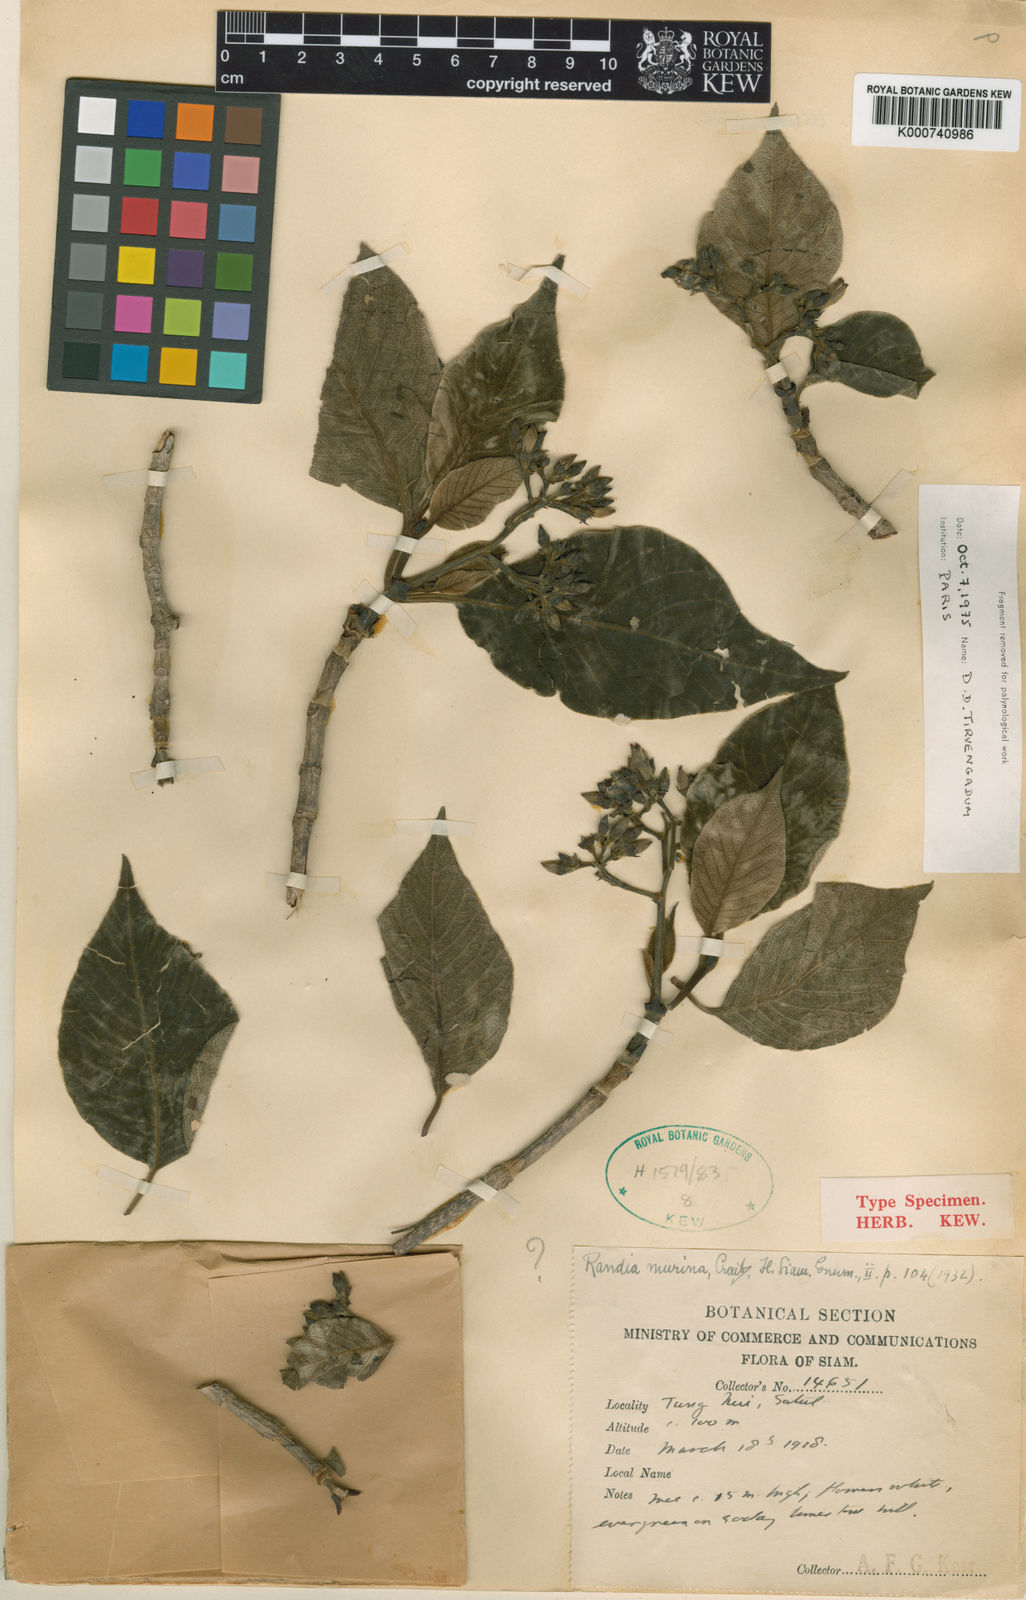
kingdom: Plantae
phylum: Tracheophyta
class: Magnoliopsida
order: Gentianales
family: Rubiaceae
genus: Vidalasia
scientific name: Vidalasia
